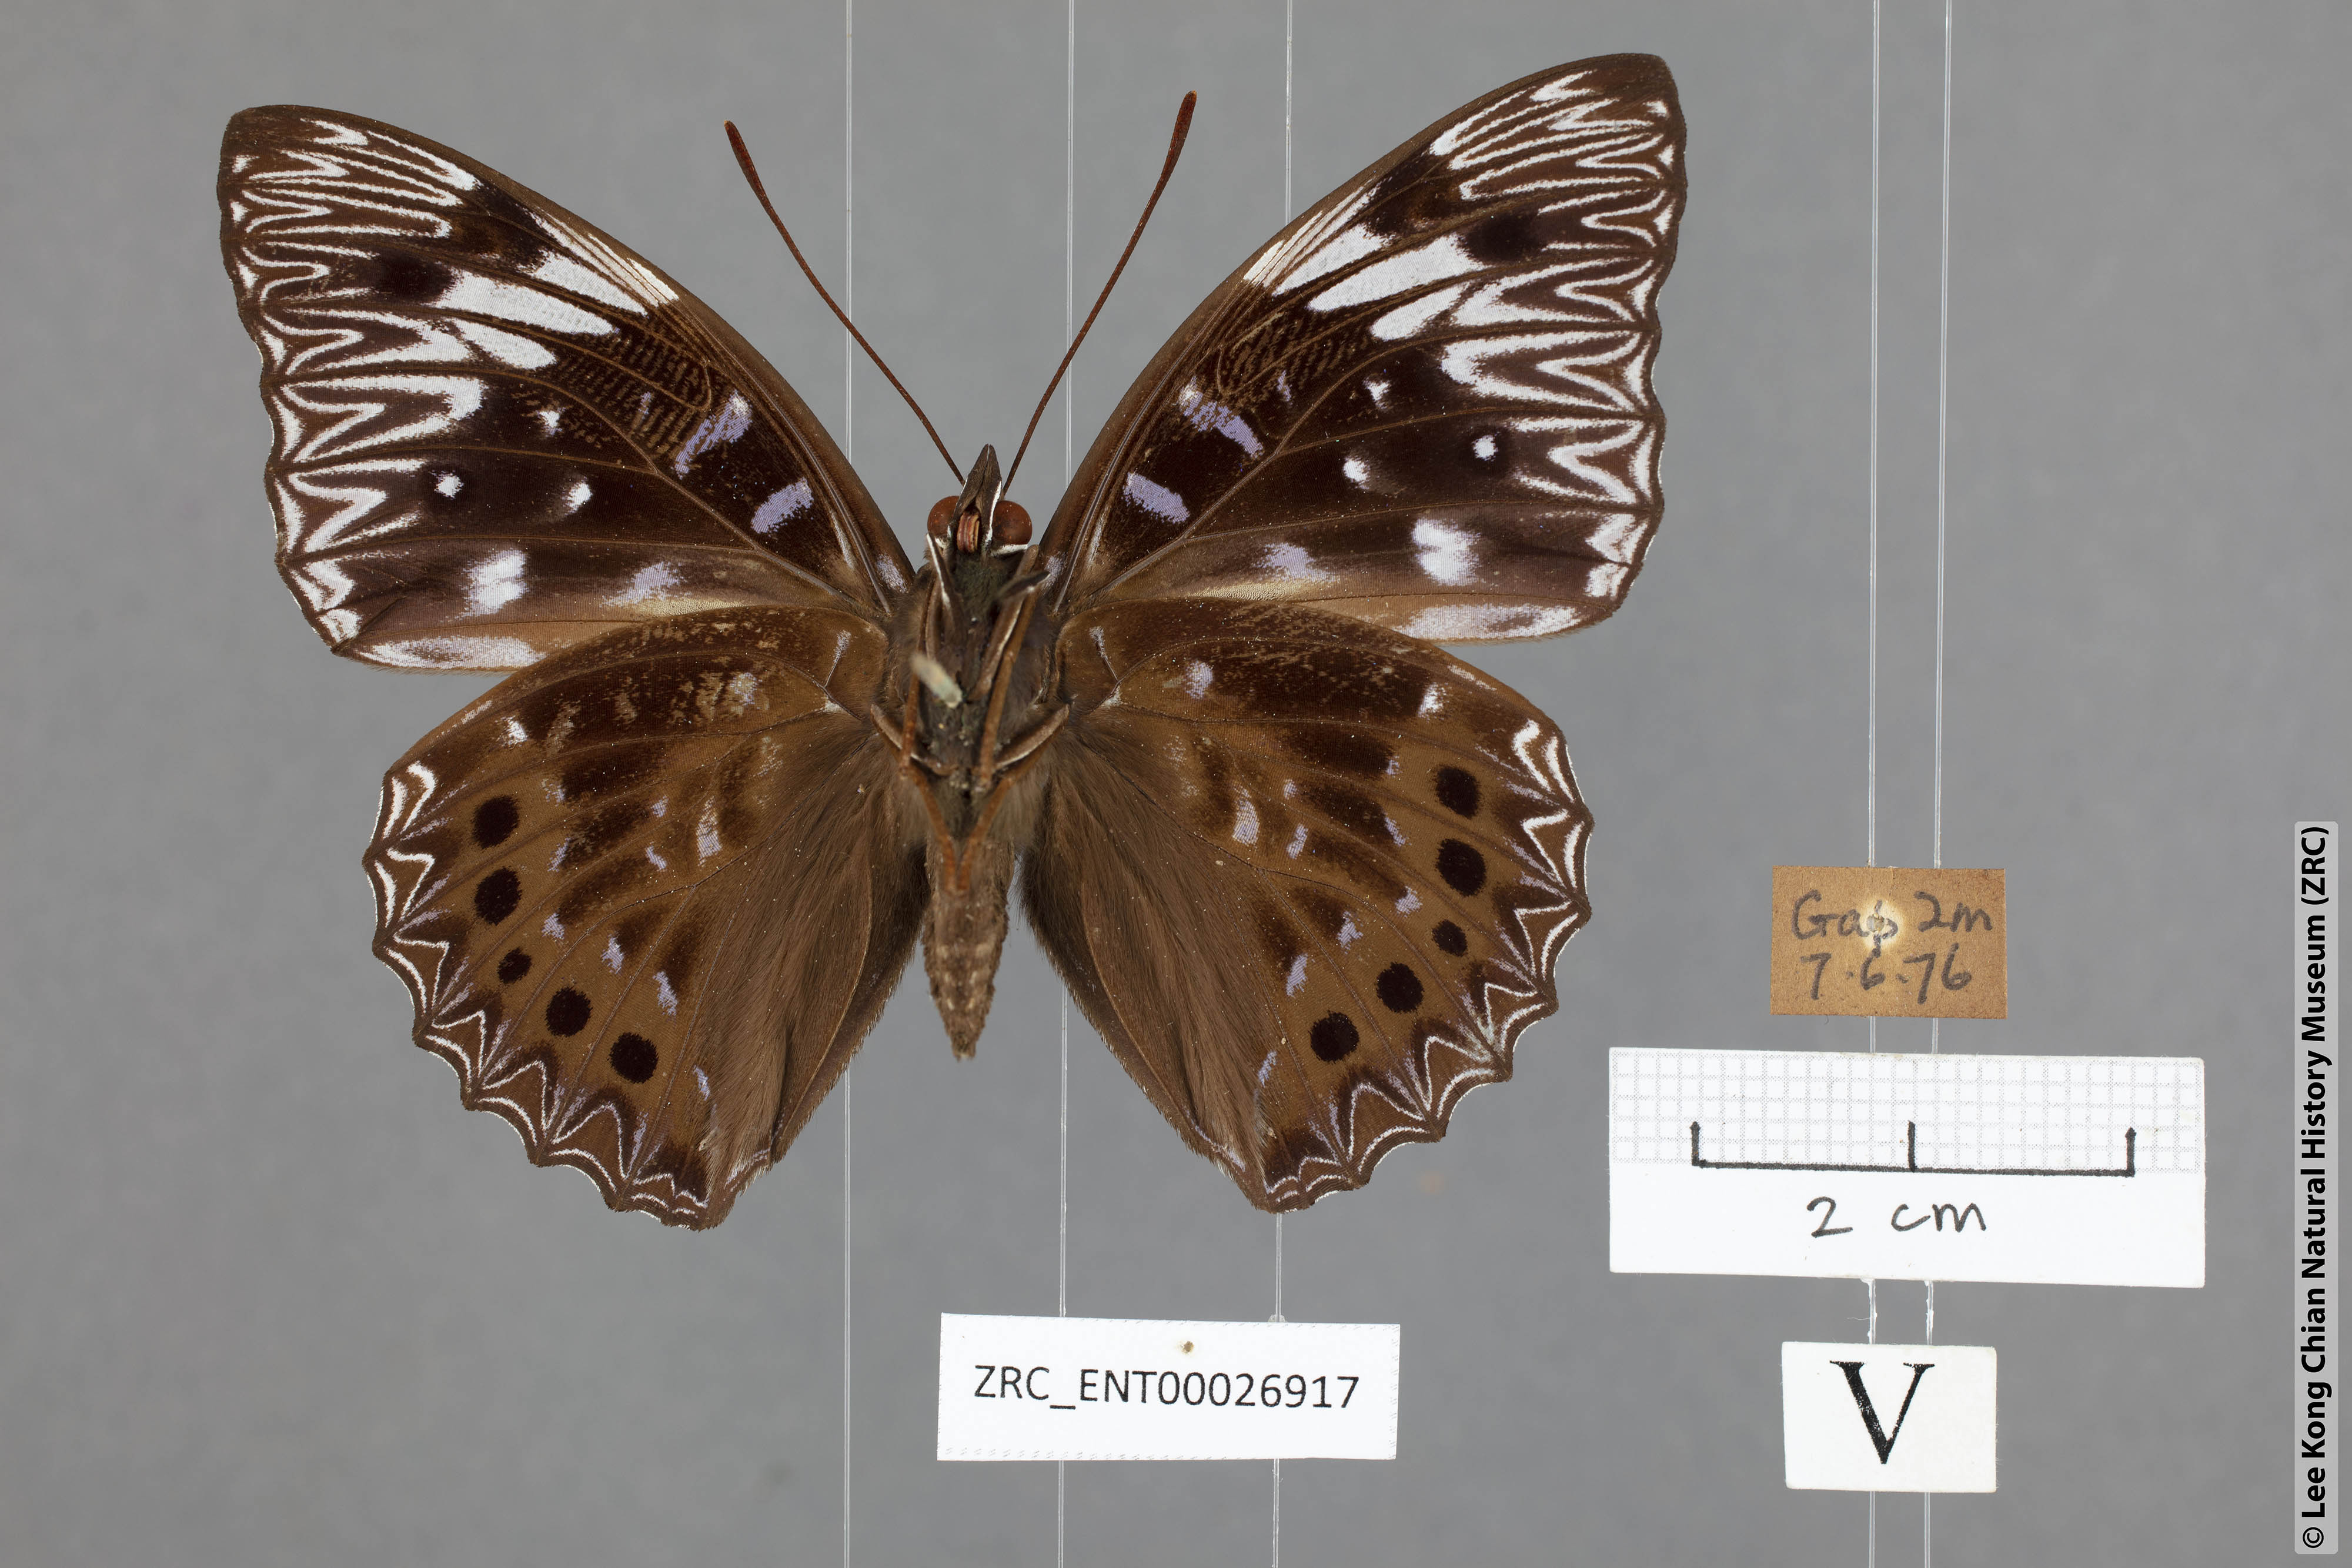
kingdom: Animalia
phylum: Arthropoda
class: Insecta
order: Lepidoptera
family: Nymphalidae
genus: Dichorragia
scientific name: Dichorragia nesimachus
